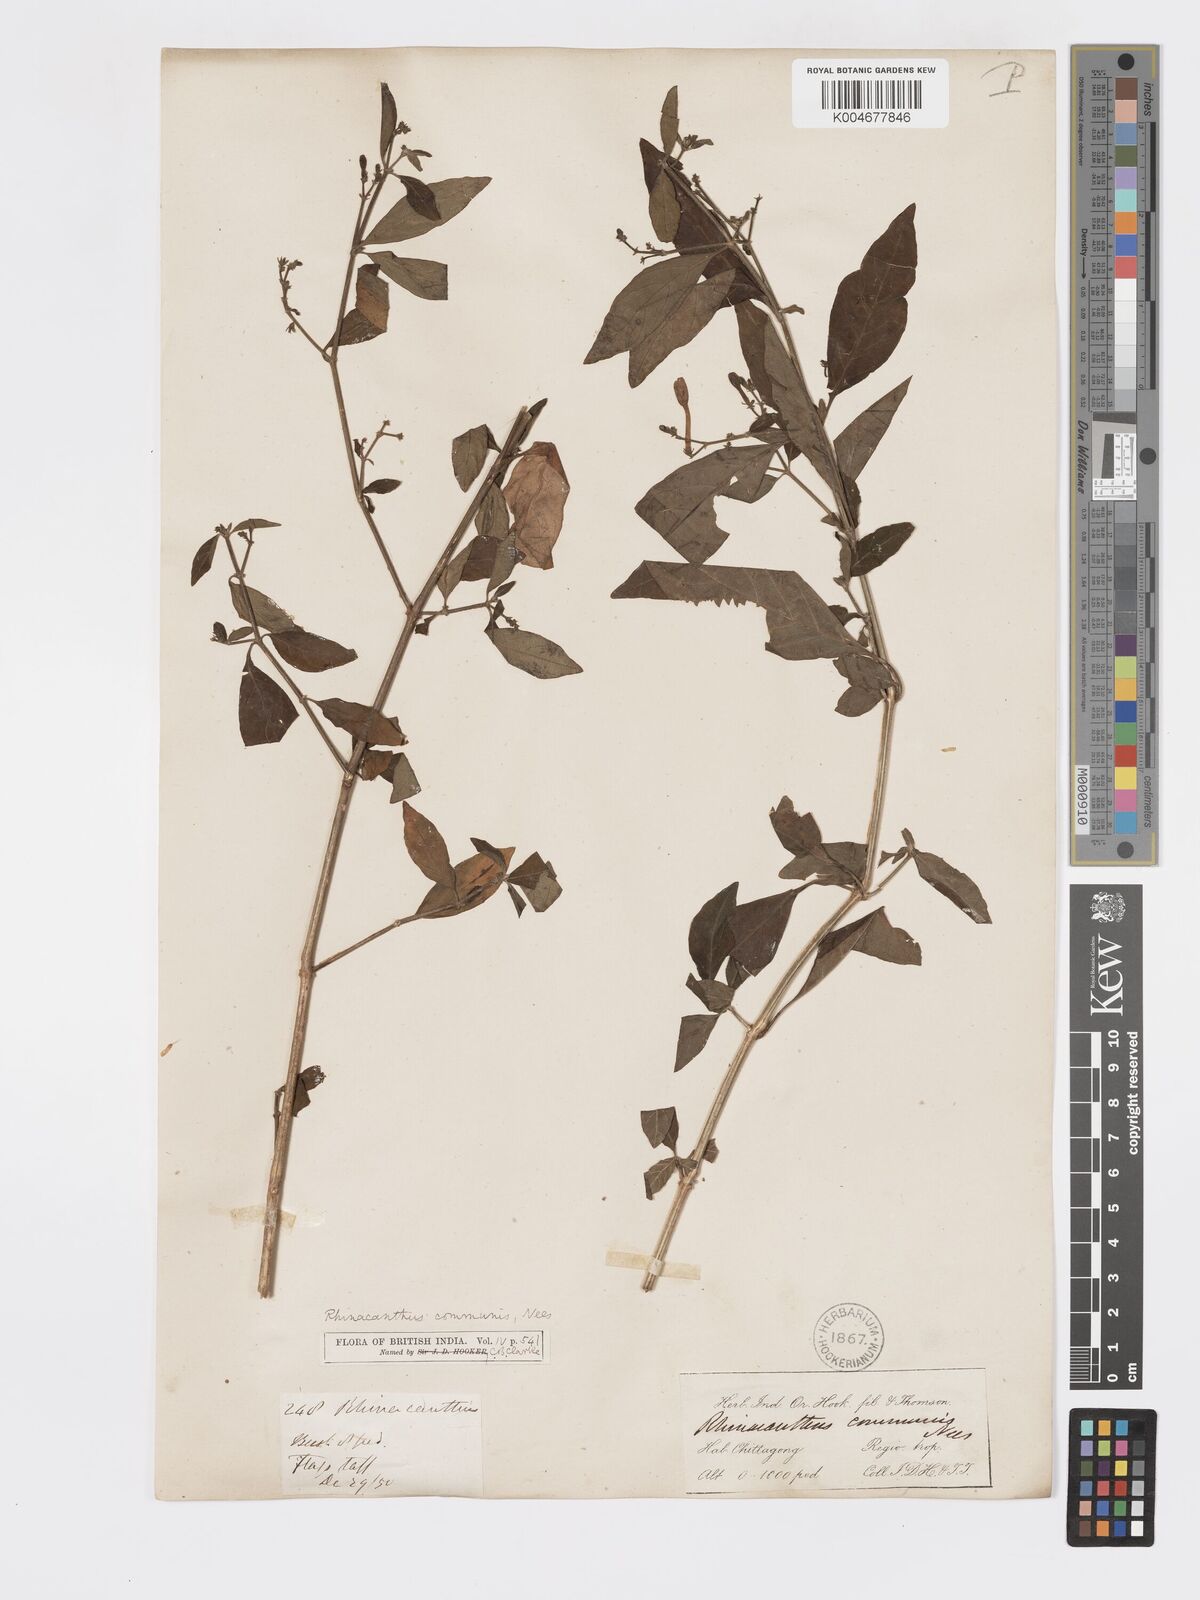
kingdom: Plantae
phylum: Tracheophyta
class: Magnoliopsida
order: Lamiales
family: Acanthaceae
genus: Rhinacanthus
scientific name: Rhinacanthus nasutus
